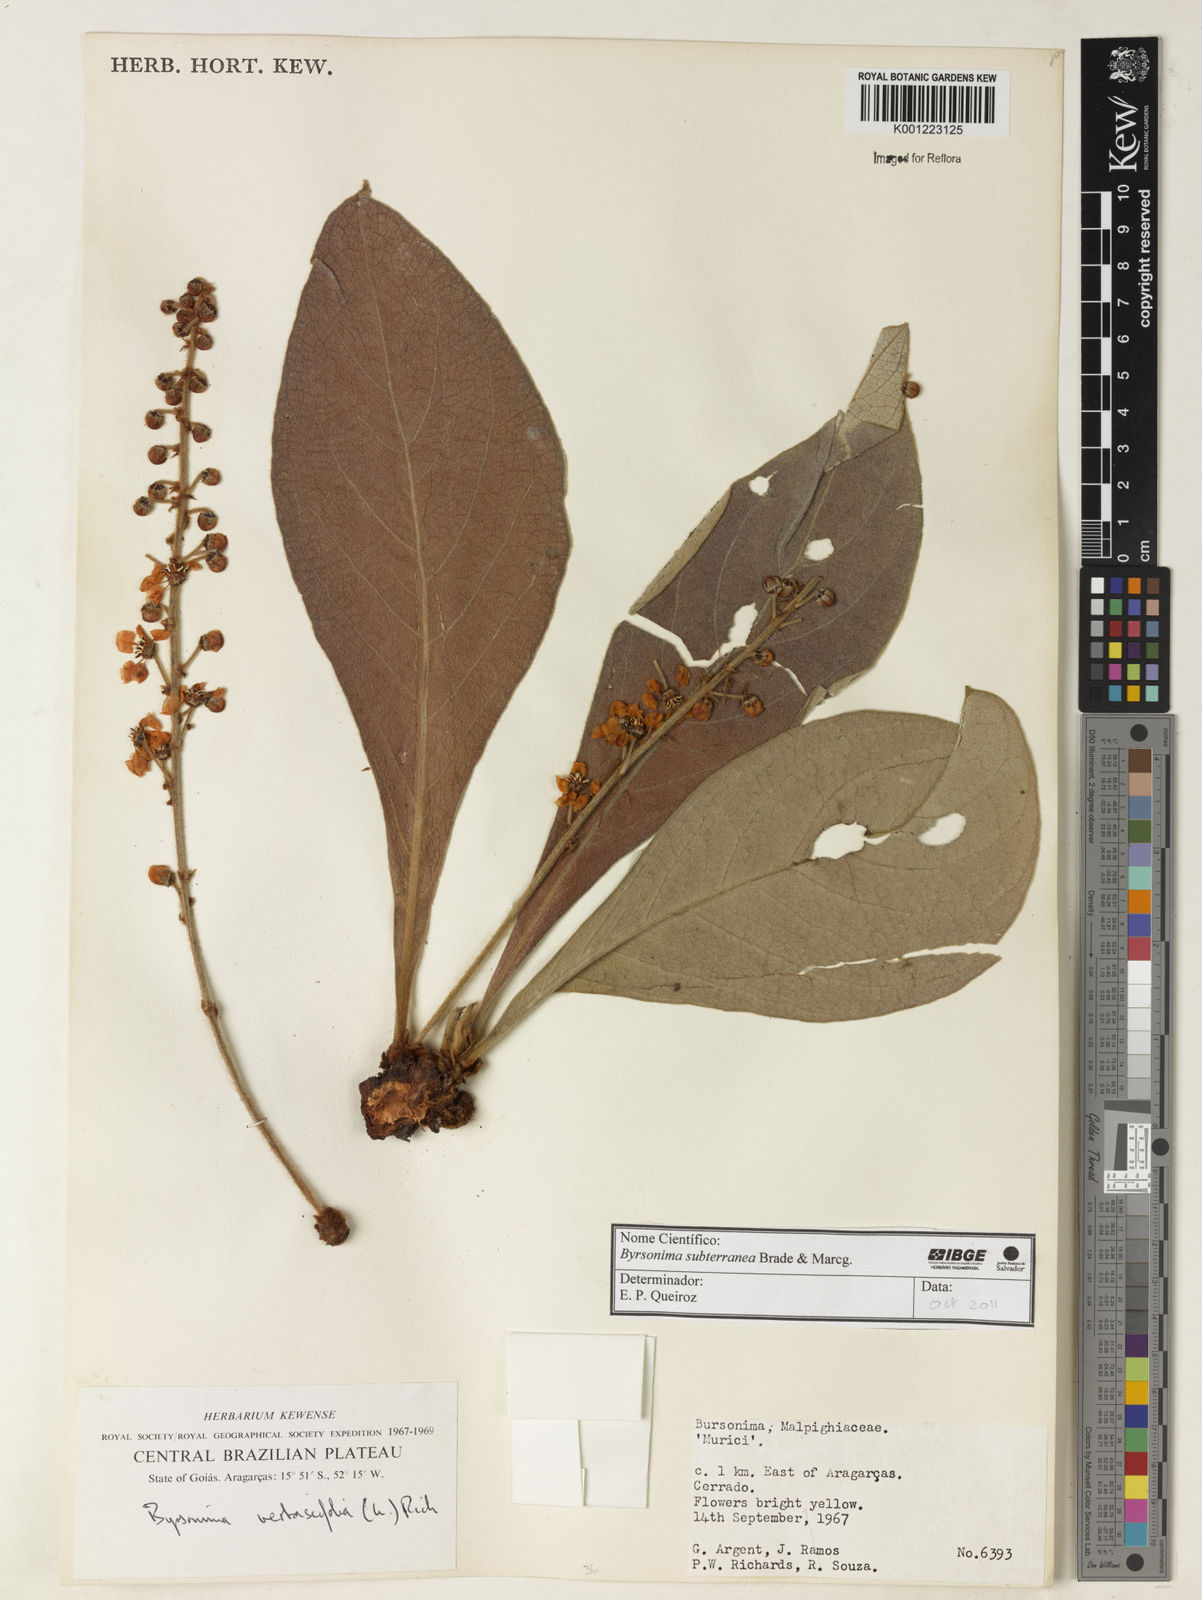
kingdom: Plantae
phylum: Tracheophyta
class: Magnoliopsida
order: Malpighiales
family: Malpighiaceae
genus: Byrsonima
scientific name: Byrsonima subterranea
